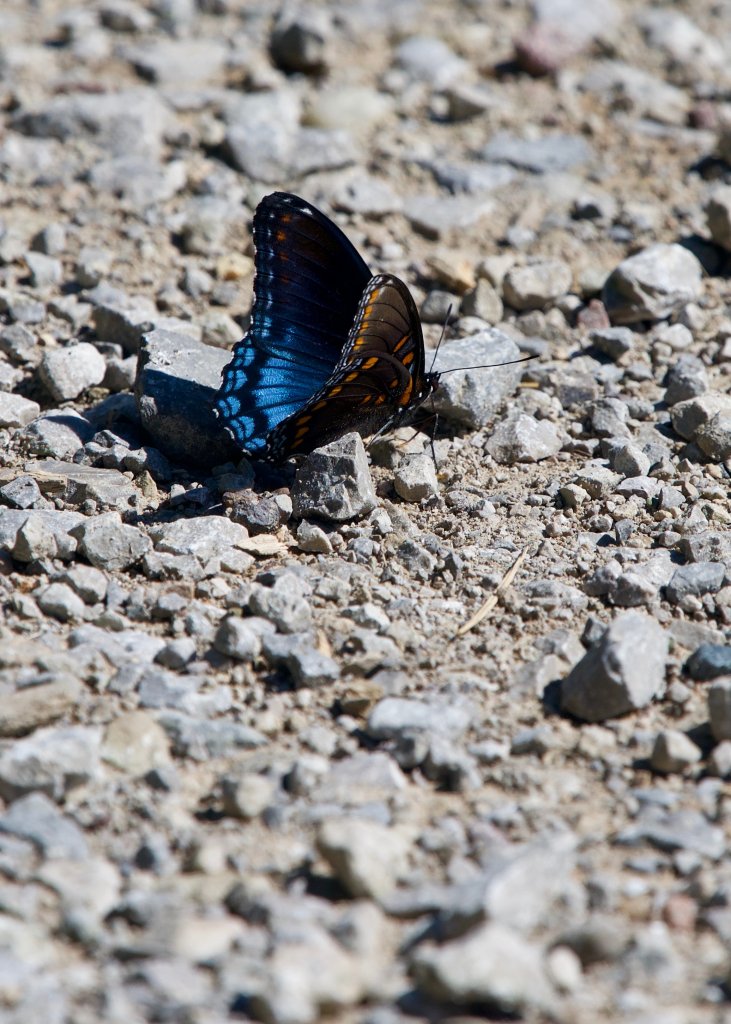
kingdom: Animalia
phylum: Arthropoda
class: Insecta
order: Lepidoptera
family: Nymphalidae
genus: Limenitis
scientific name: Limenitis astyanax
